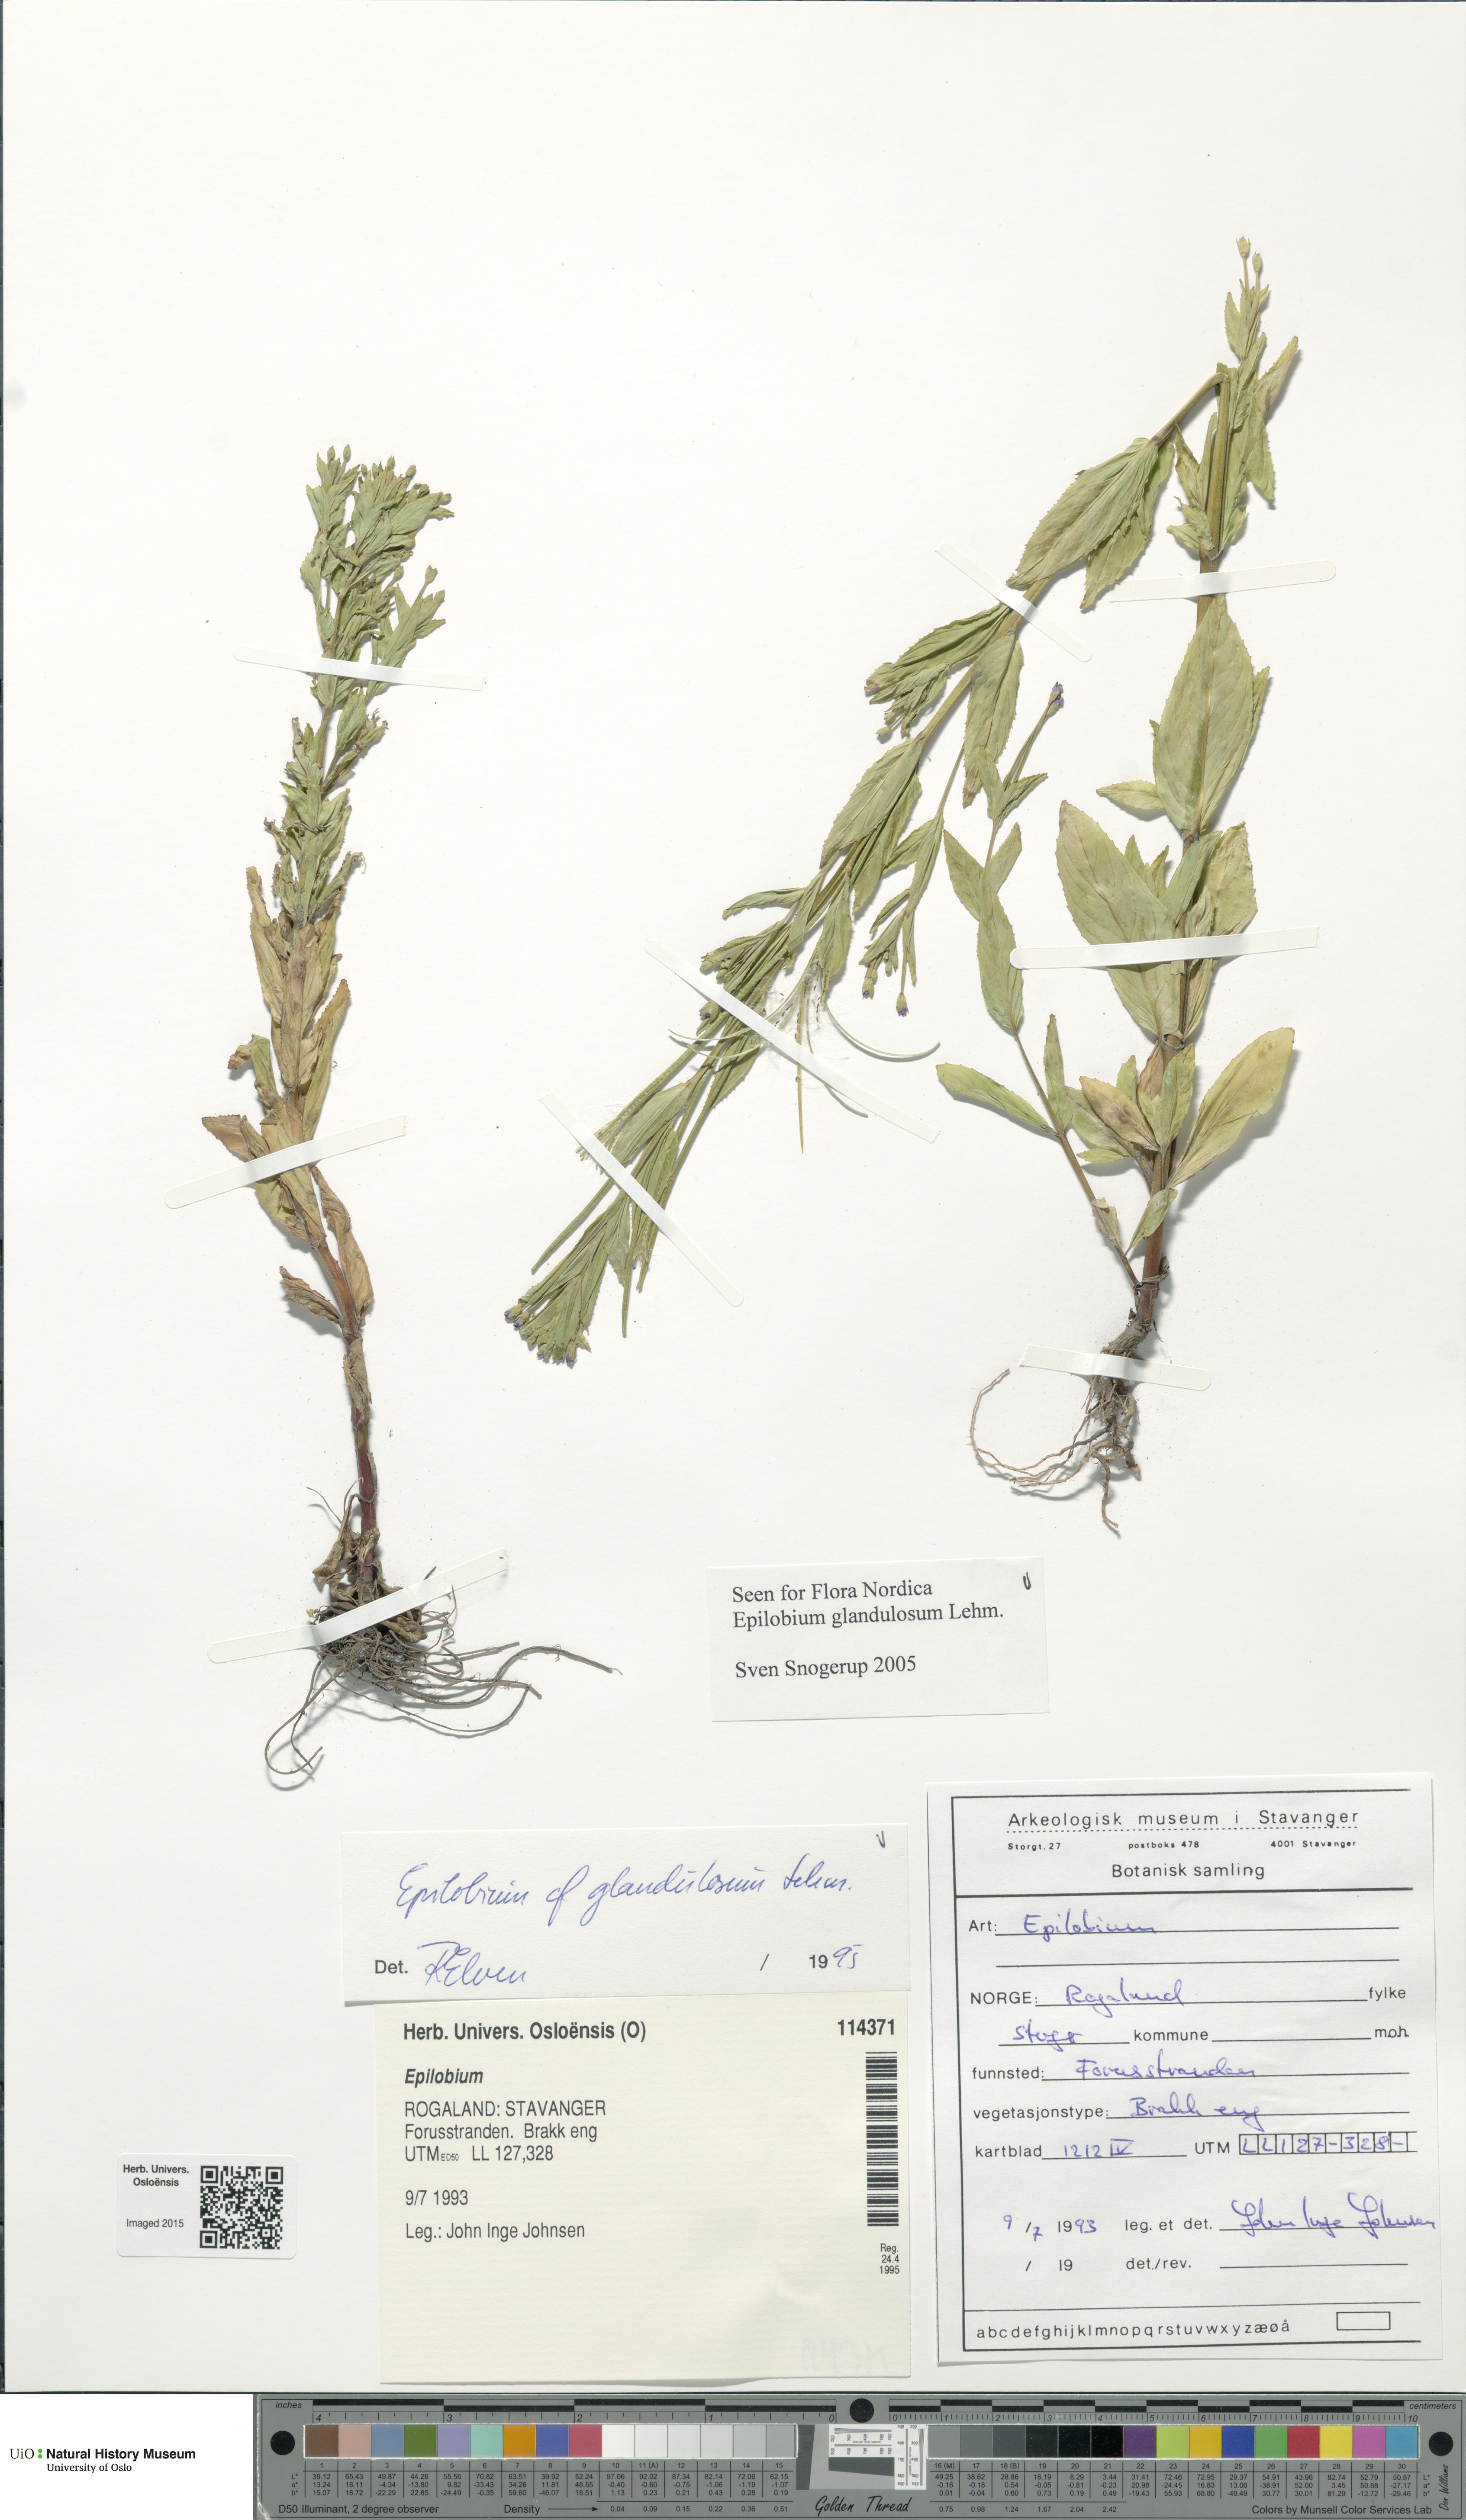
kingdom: Plantae
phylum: Tracheophyta
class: Magnoliopsida
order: Myrtales
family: Onagraceae
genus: Epilobium
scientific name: Epilobium ciliatum
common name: American willowherb
